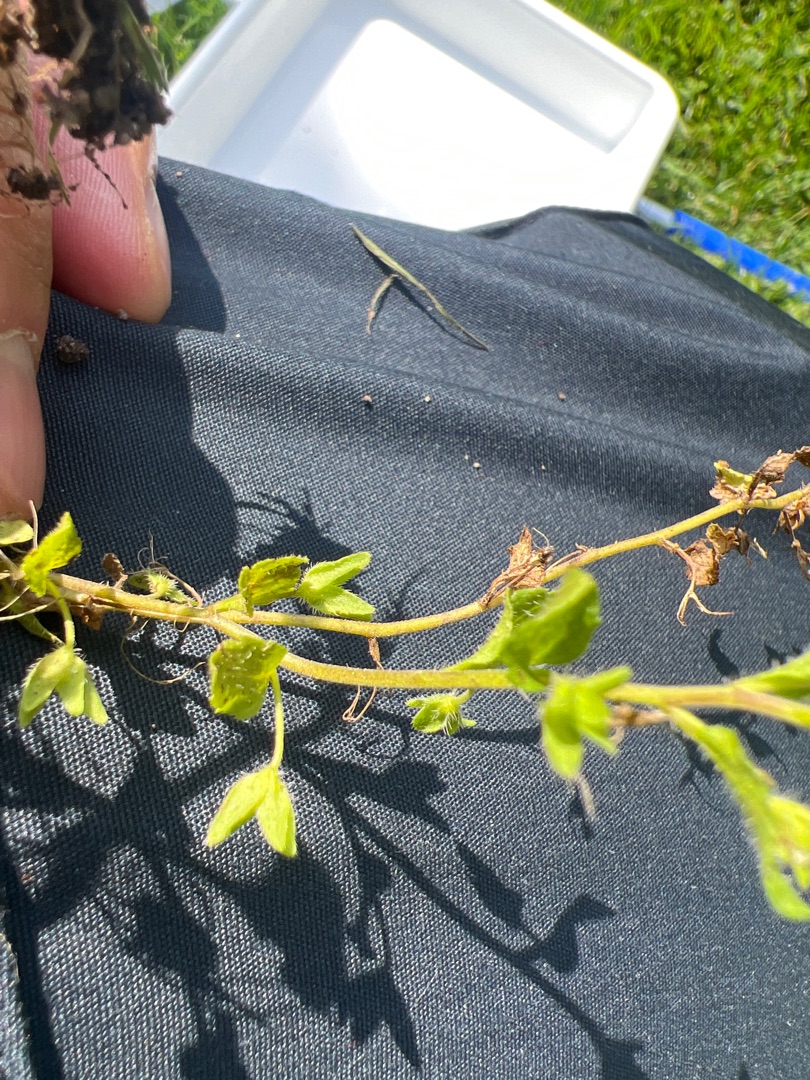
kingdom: Plantae
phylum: Tracheophyta
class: Magnoliopsida
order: Lamiales
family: Plantaginaceae
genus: Veronica
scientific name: Veronica agrestis
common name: Flerfarvet ærenpris
